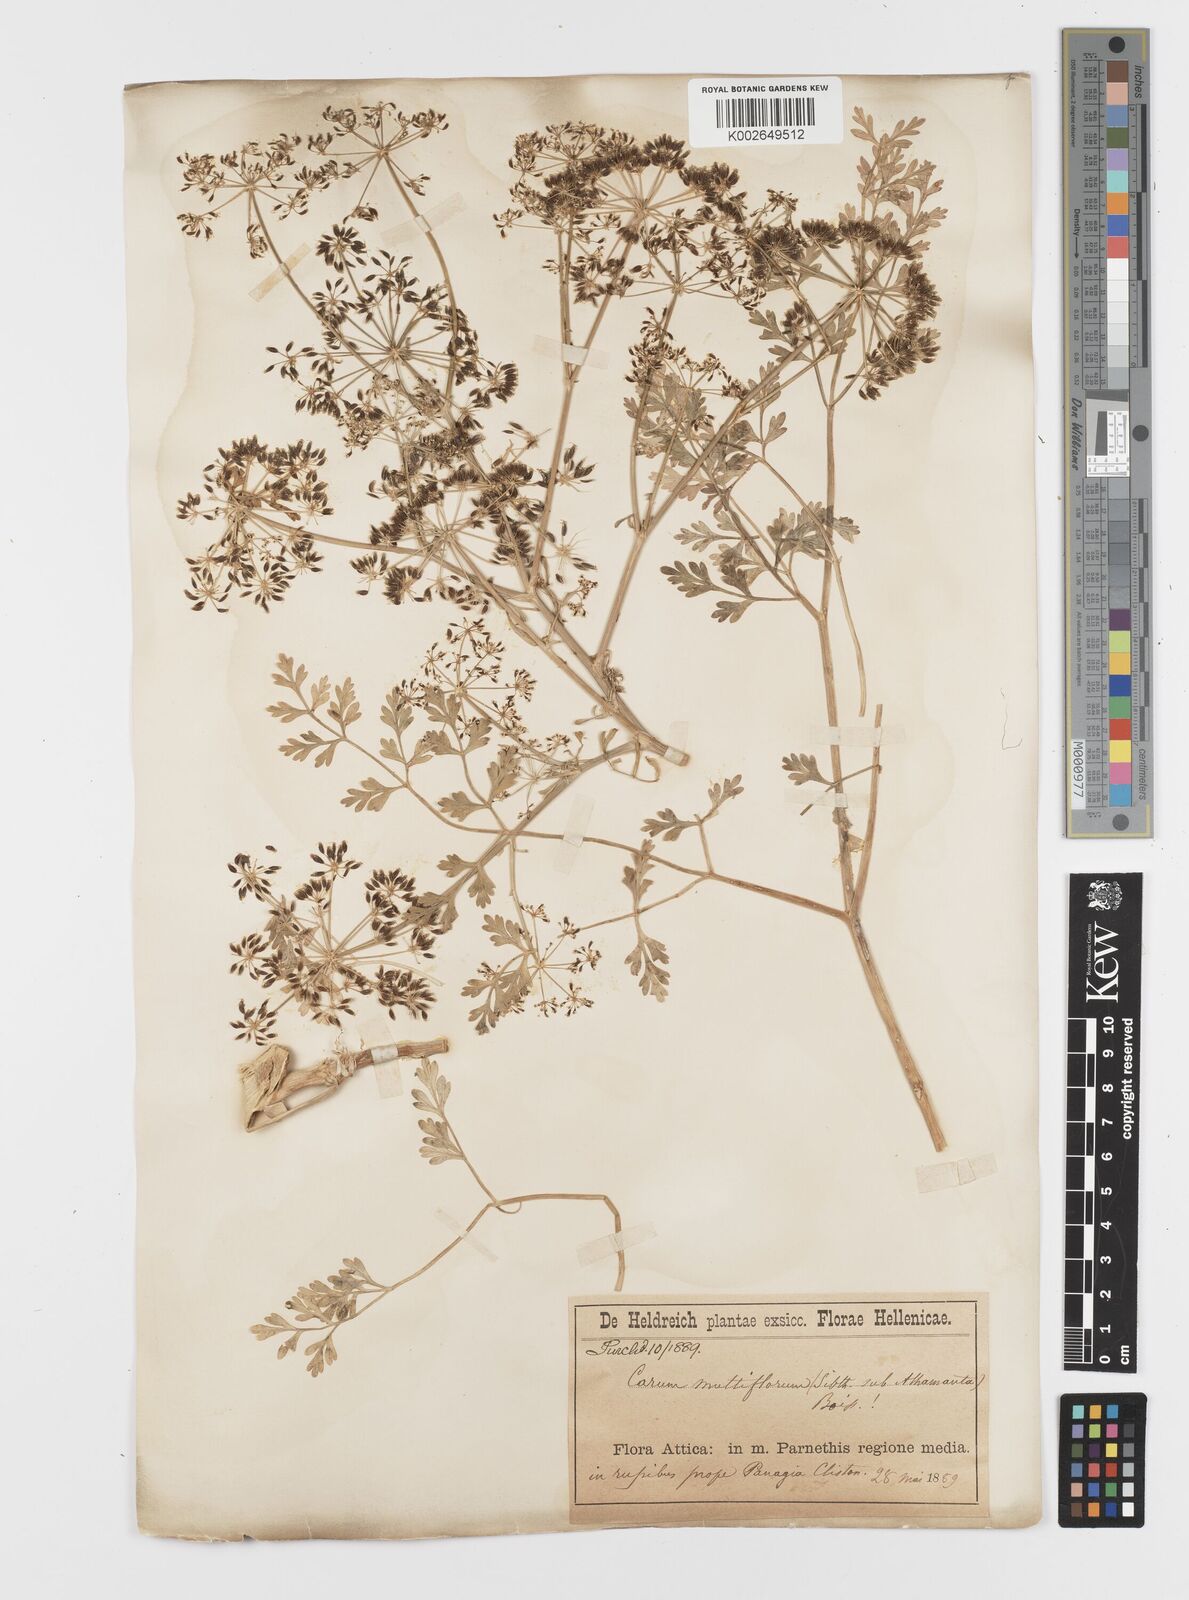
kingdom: Plantae
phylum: Tracheophyta
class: Magnoliopsida
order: Apiales
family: Apiaceae
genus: Hellenocarum
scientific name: Hellenocarum multiflorum
